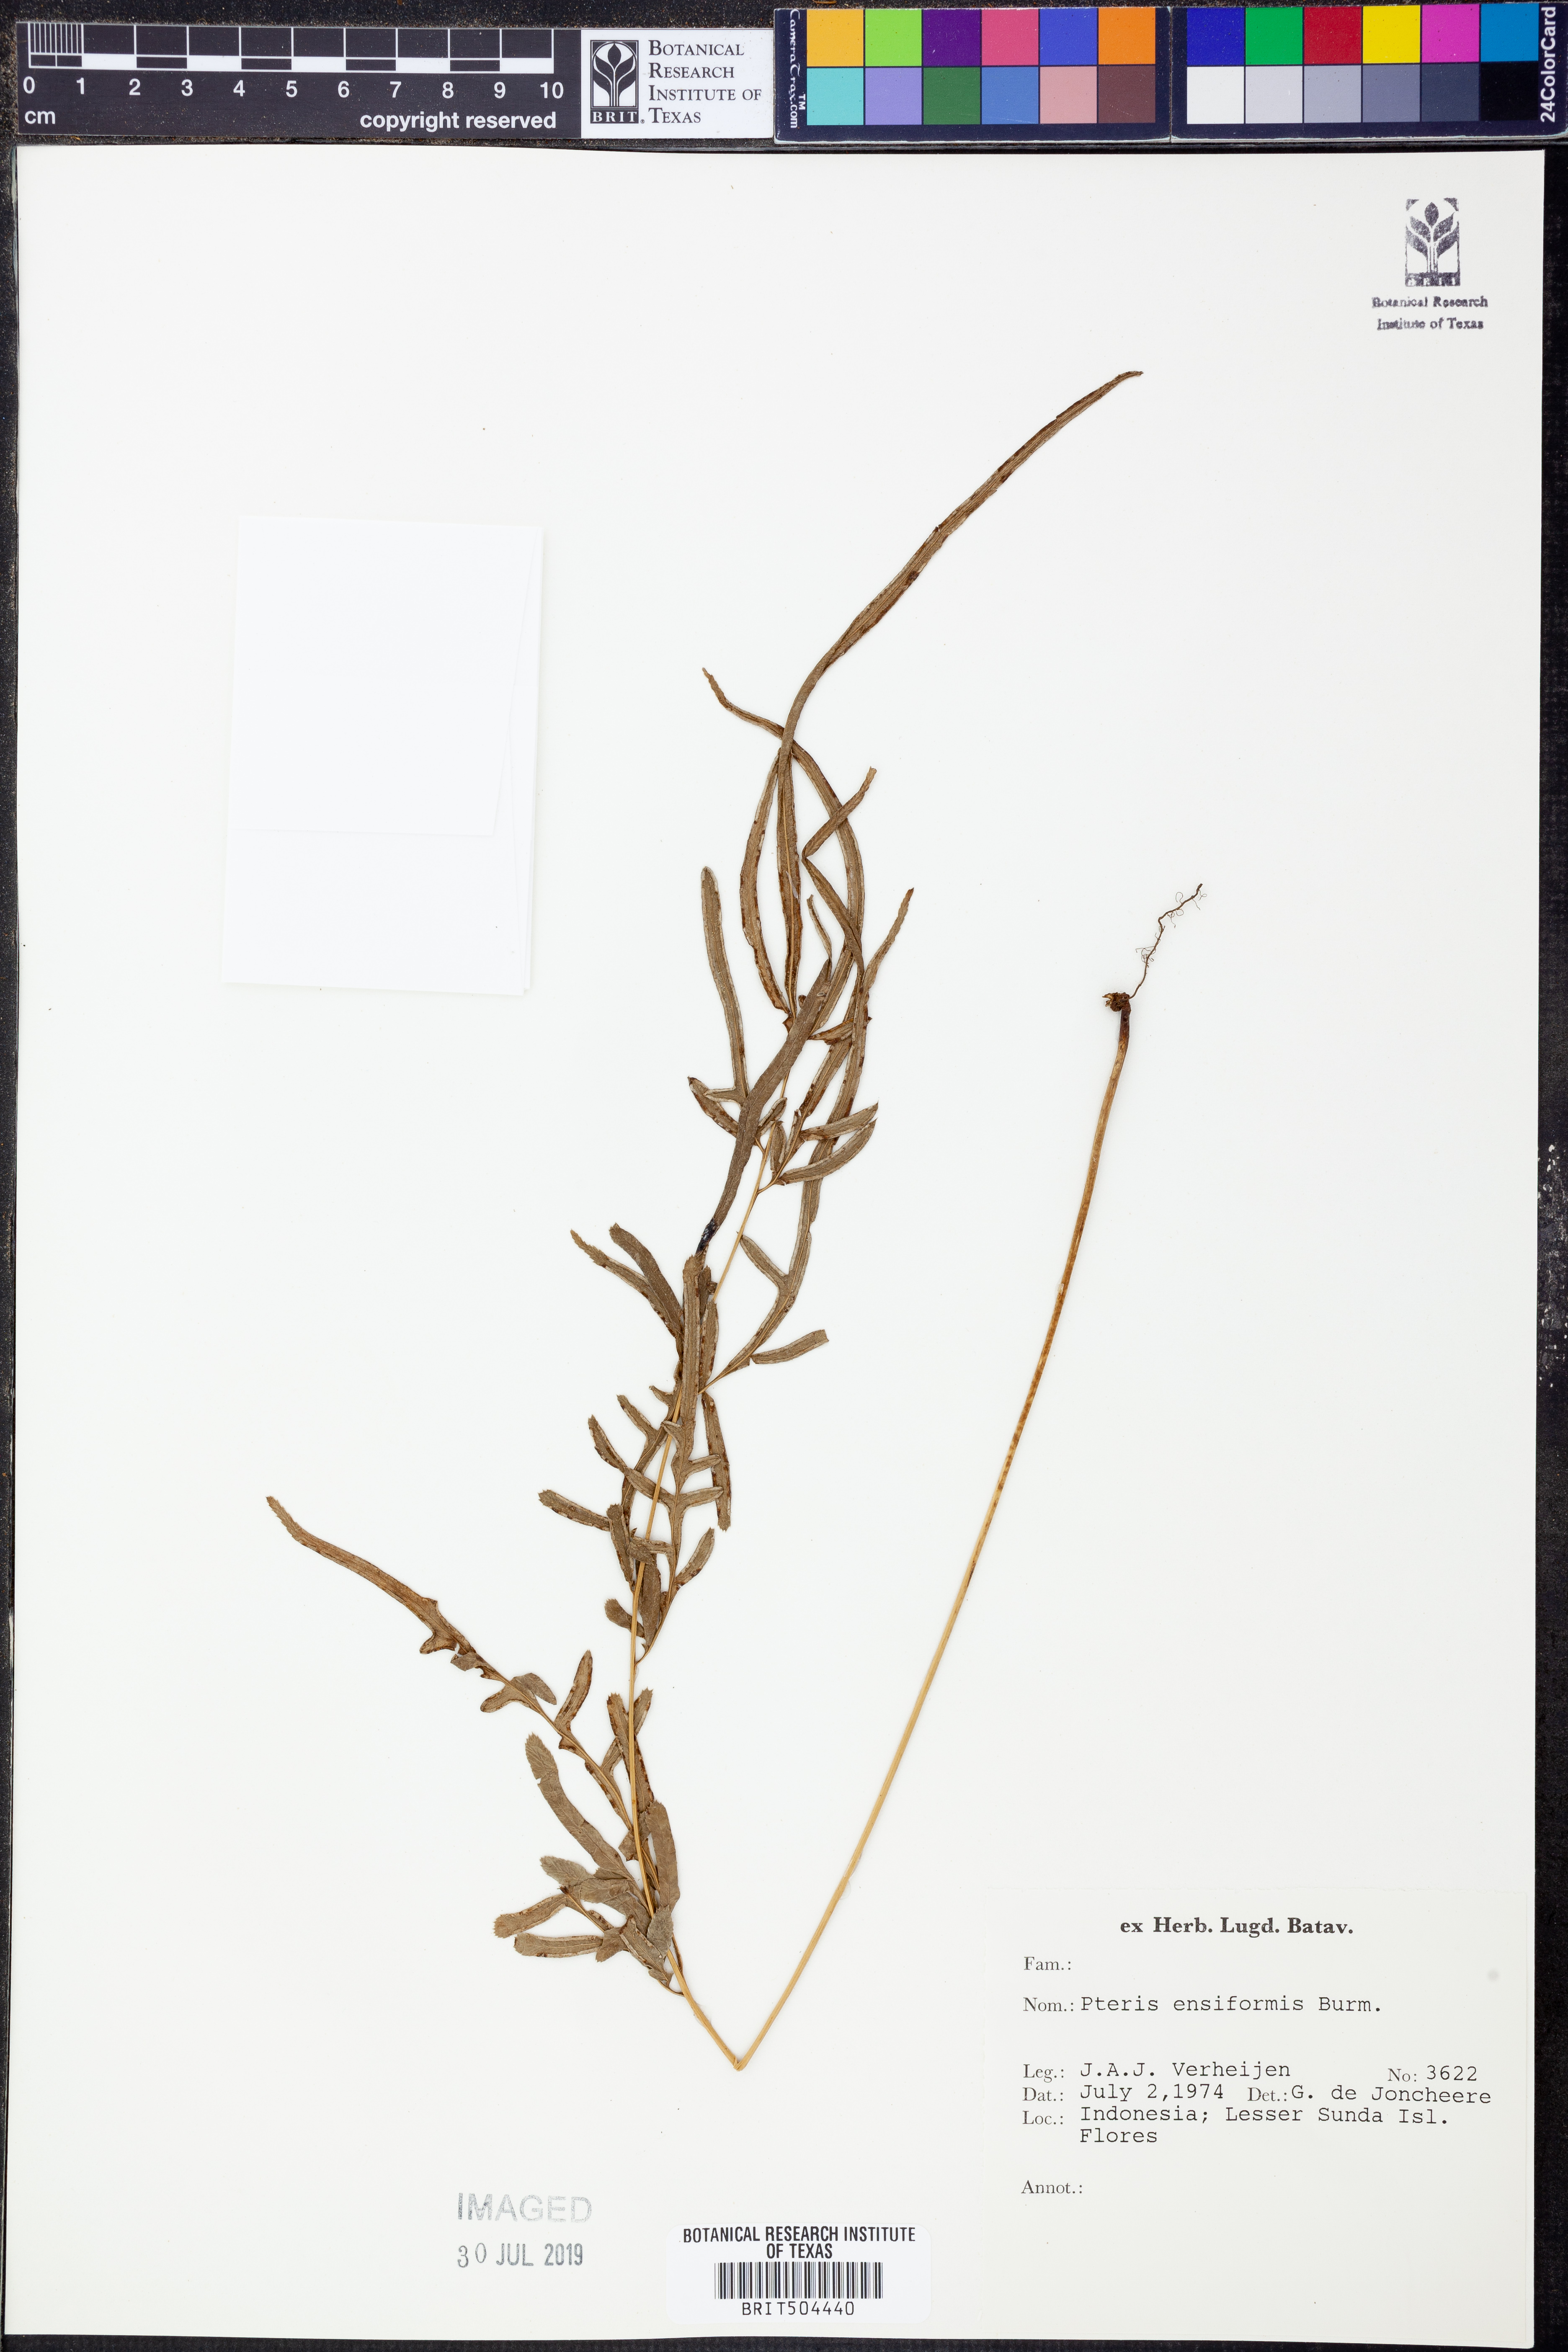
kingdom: Plantae
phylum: Tracheophyta
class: Polypodiopsida
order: Polypodiales
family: Pteridaceae
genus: Pteris
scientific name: Pteris ensiformis
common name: Sword brake
